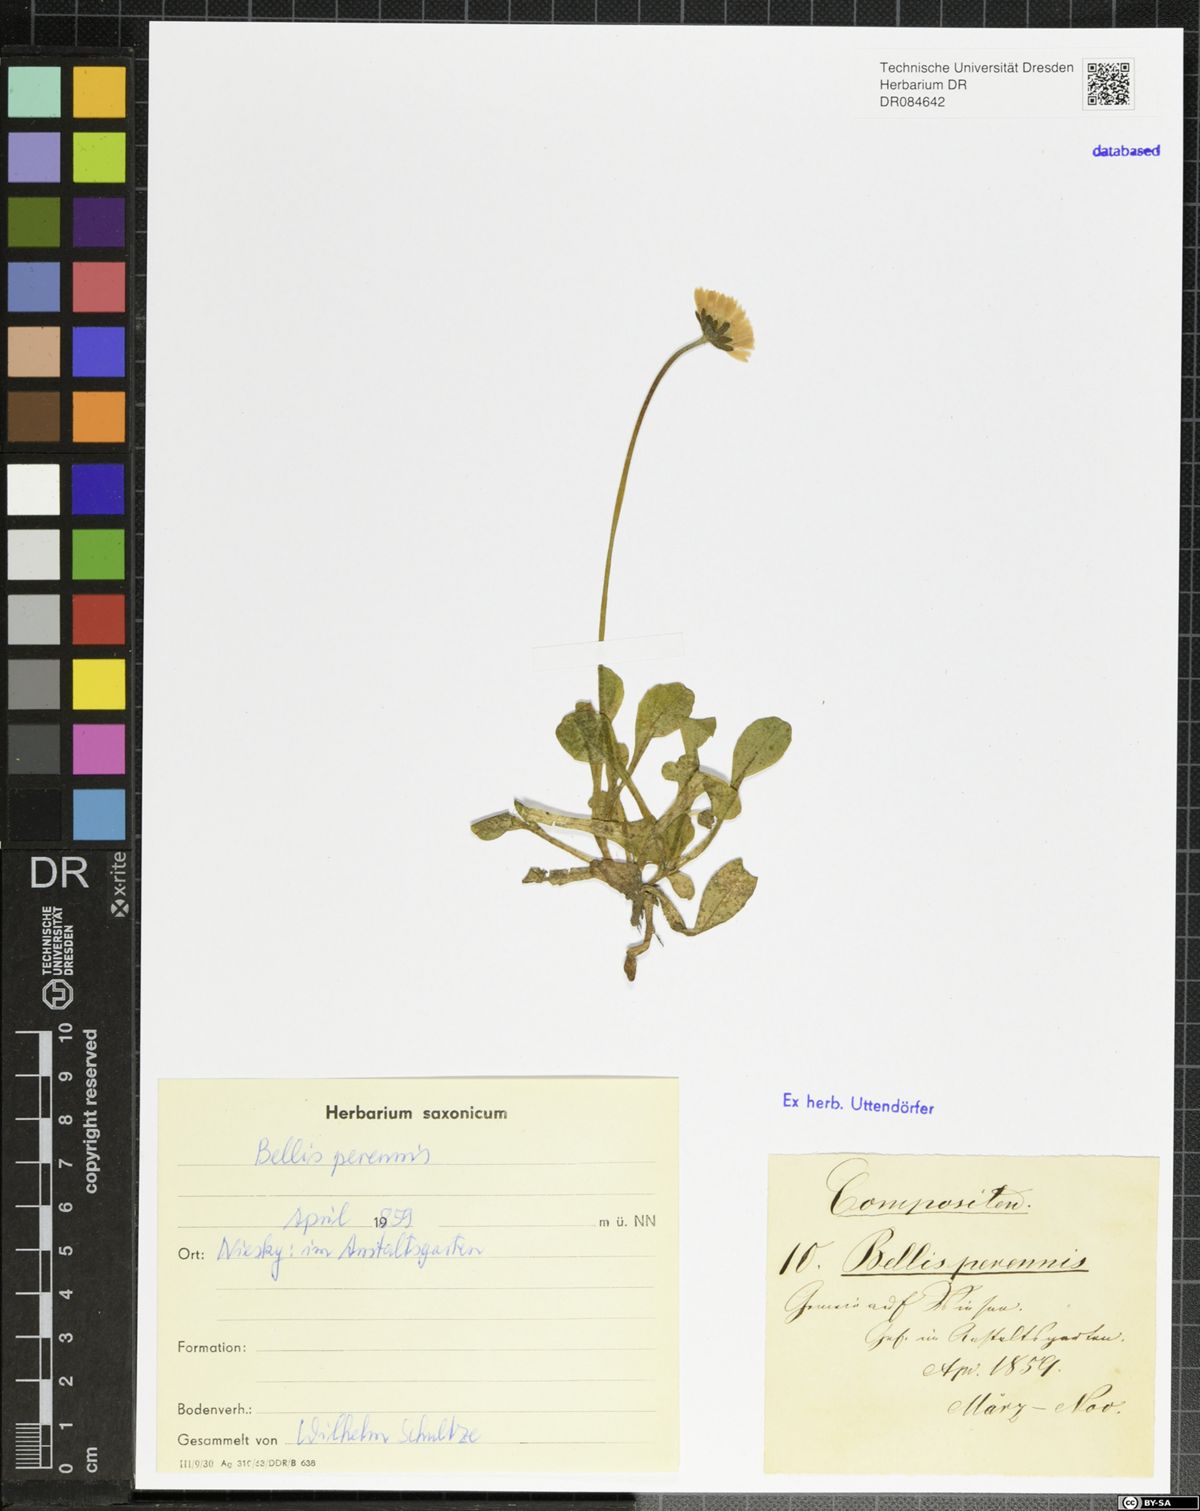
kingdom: Plantae
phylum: Tracheophyta
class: Magnoliopsida
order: Asterales
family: Asteraceae
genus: Bellis
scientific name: Bellis perennis
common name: Lawndaisy
